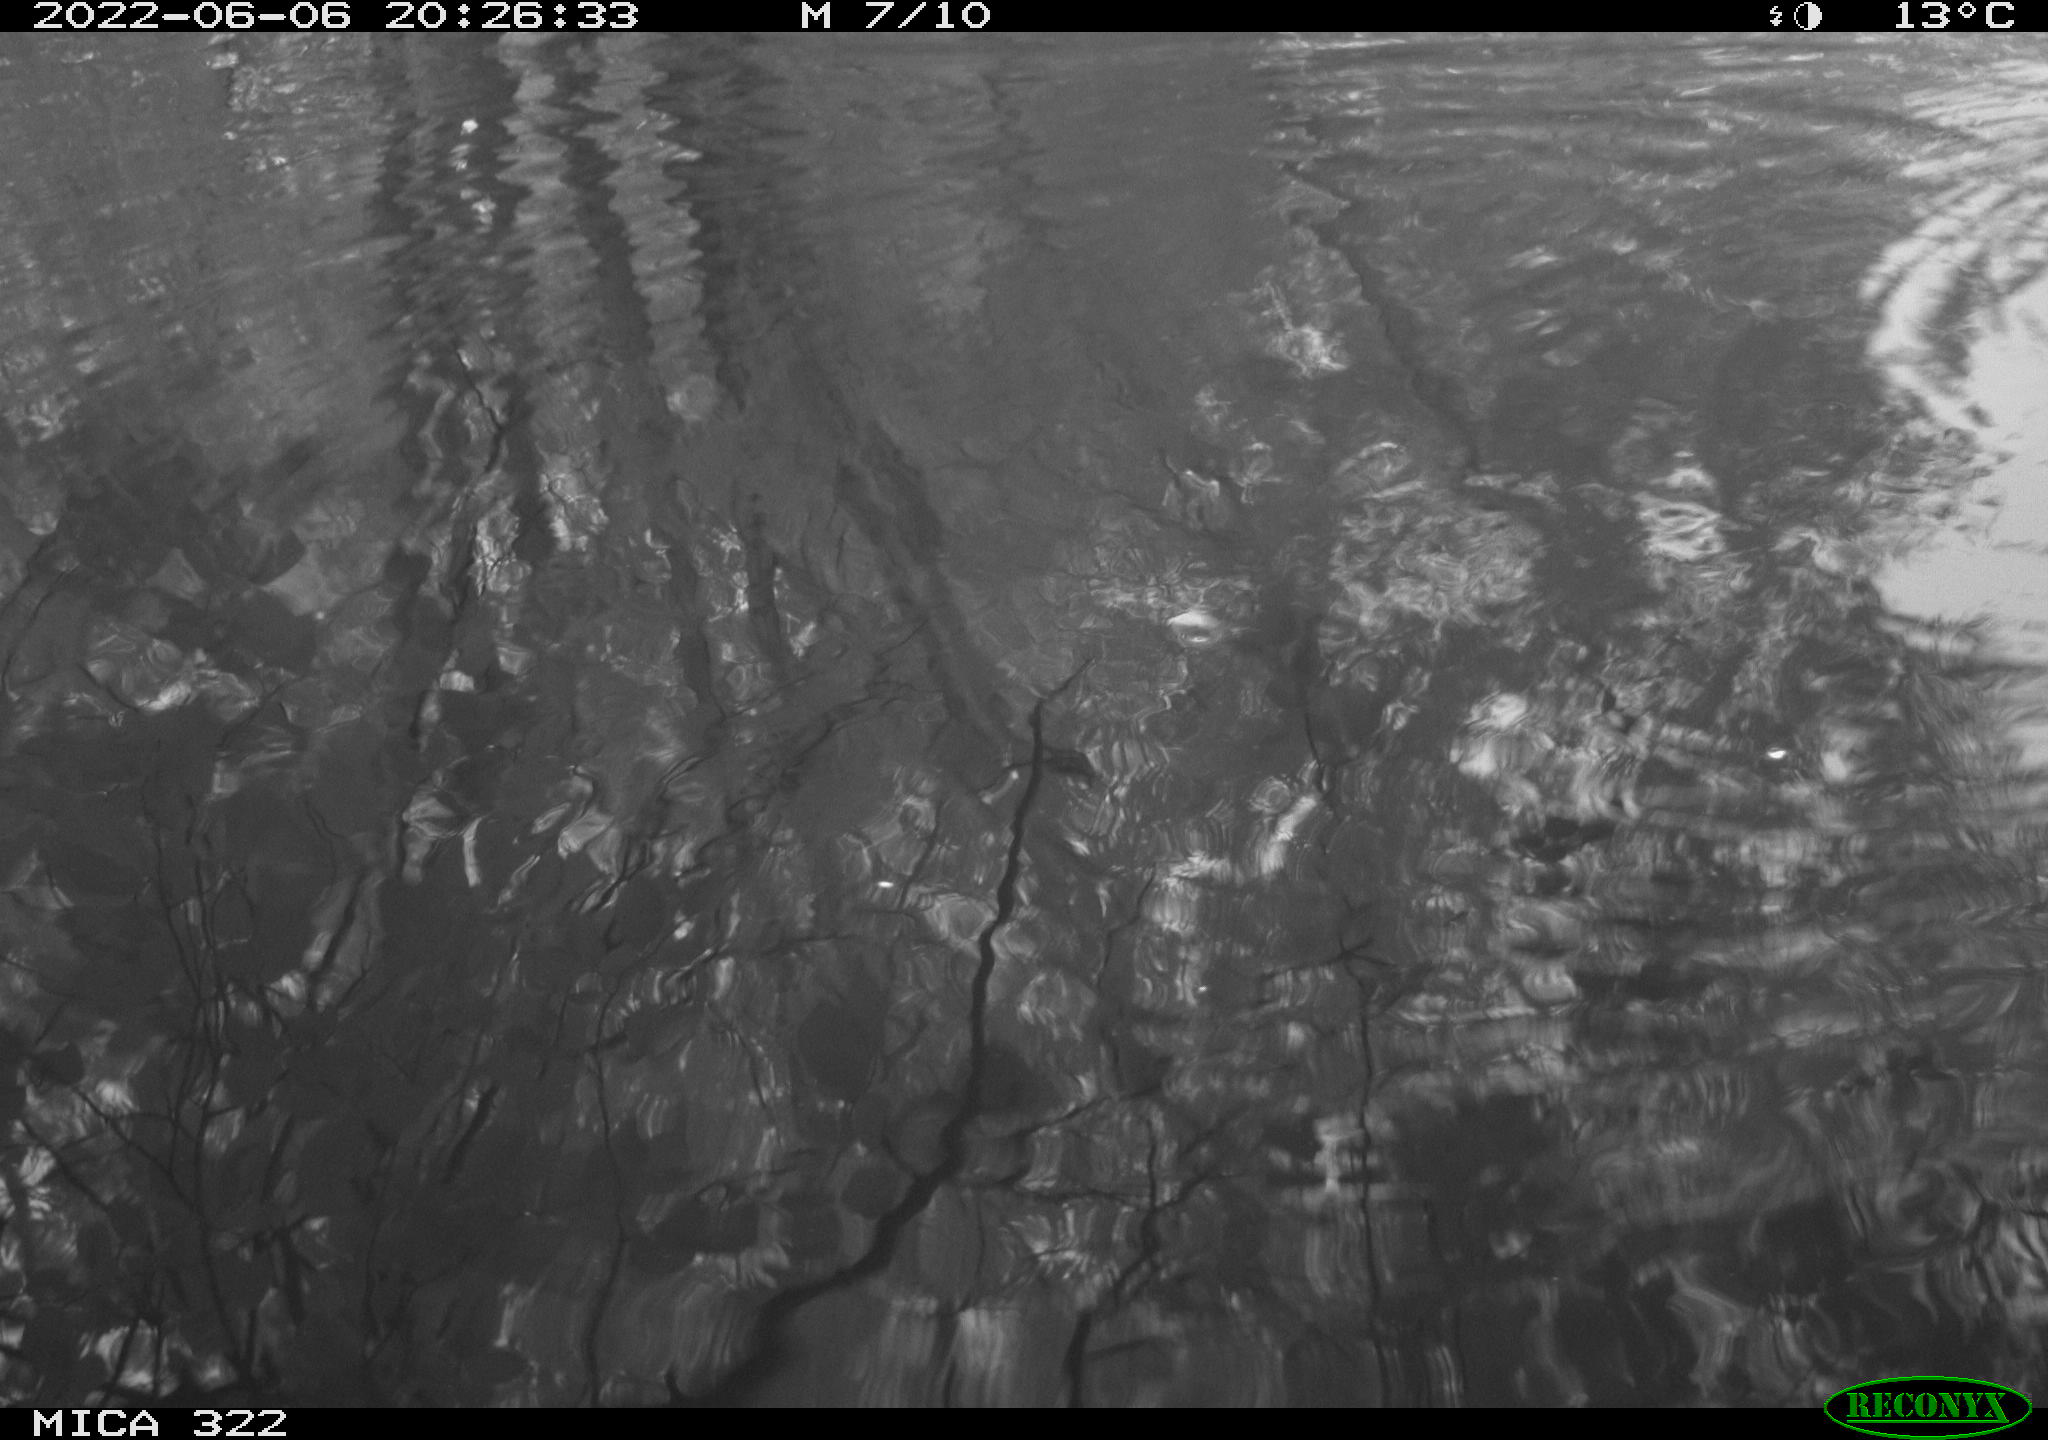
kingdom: Animalia
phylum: Chordata
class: Aves
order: Gruiformes
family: Rallidae
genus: Gallinula
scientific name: Gallinula chloropus
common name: Common moorhen
